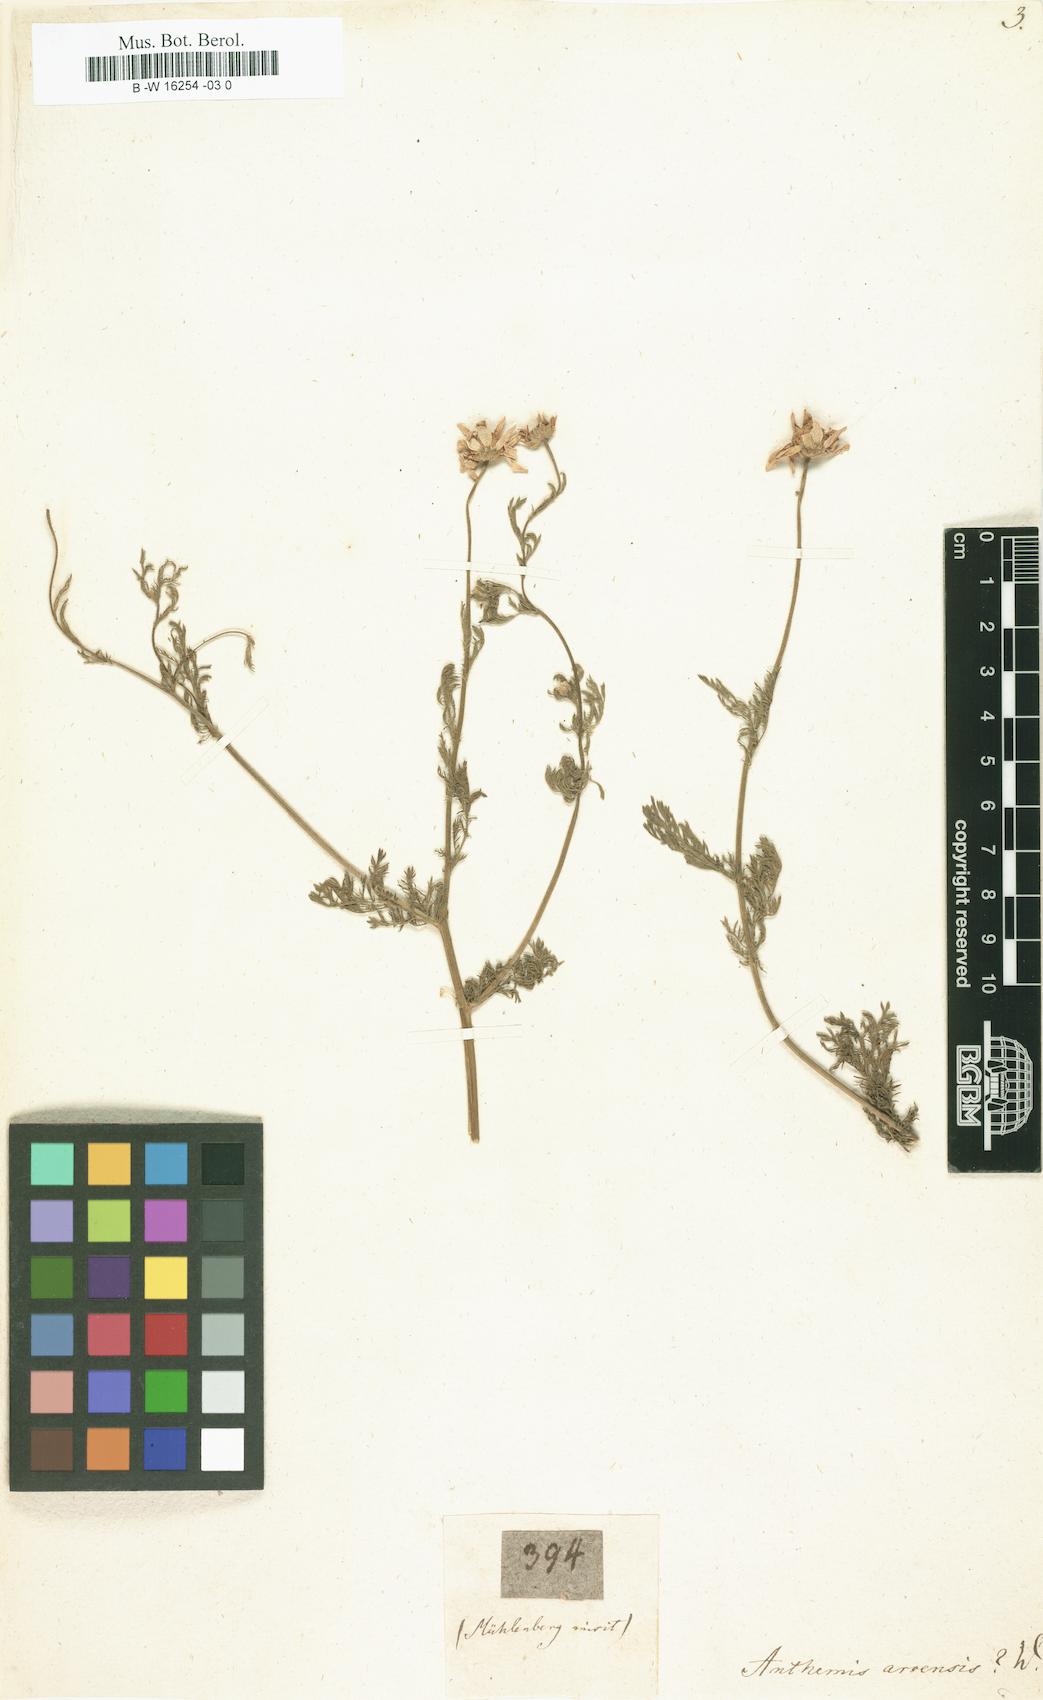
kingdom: Plantae
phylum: Tracheophyta
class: Magnoliopsida
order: Asterales
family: Asteraceae
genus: Anthemis
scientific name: Anthemis arvensis
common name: Corn chamomile
